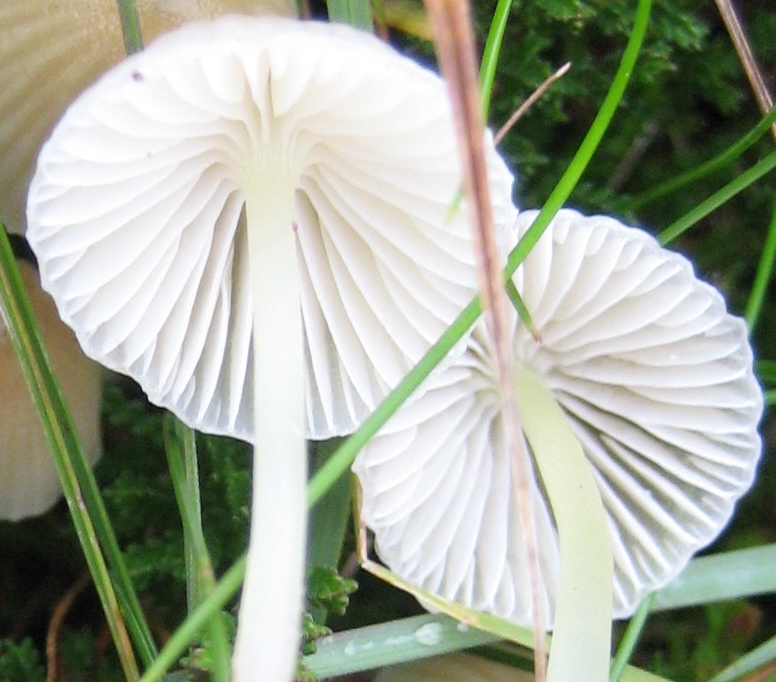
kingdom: Fungi
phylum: Basidiomycota
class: Agaricomycetes
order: Agaricales
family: Mycenaceae
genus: Mycena
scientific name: Mycena epipterygia
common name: gulstokket huesvamp
